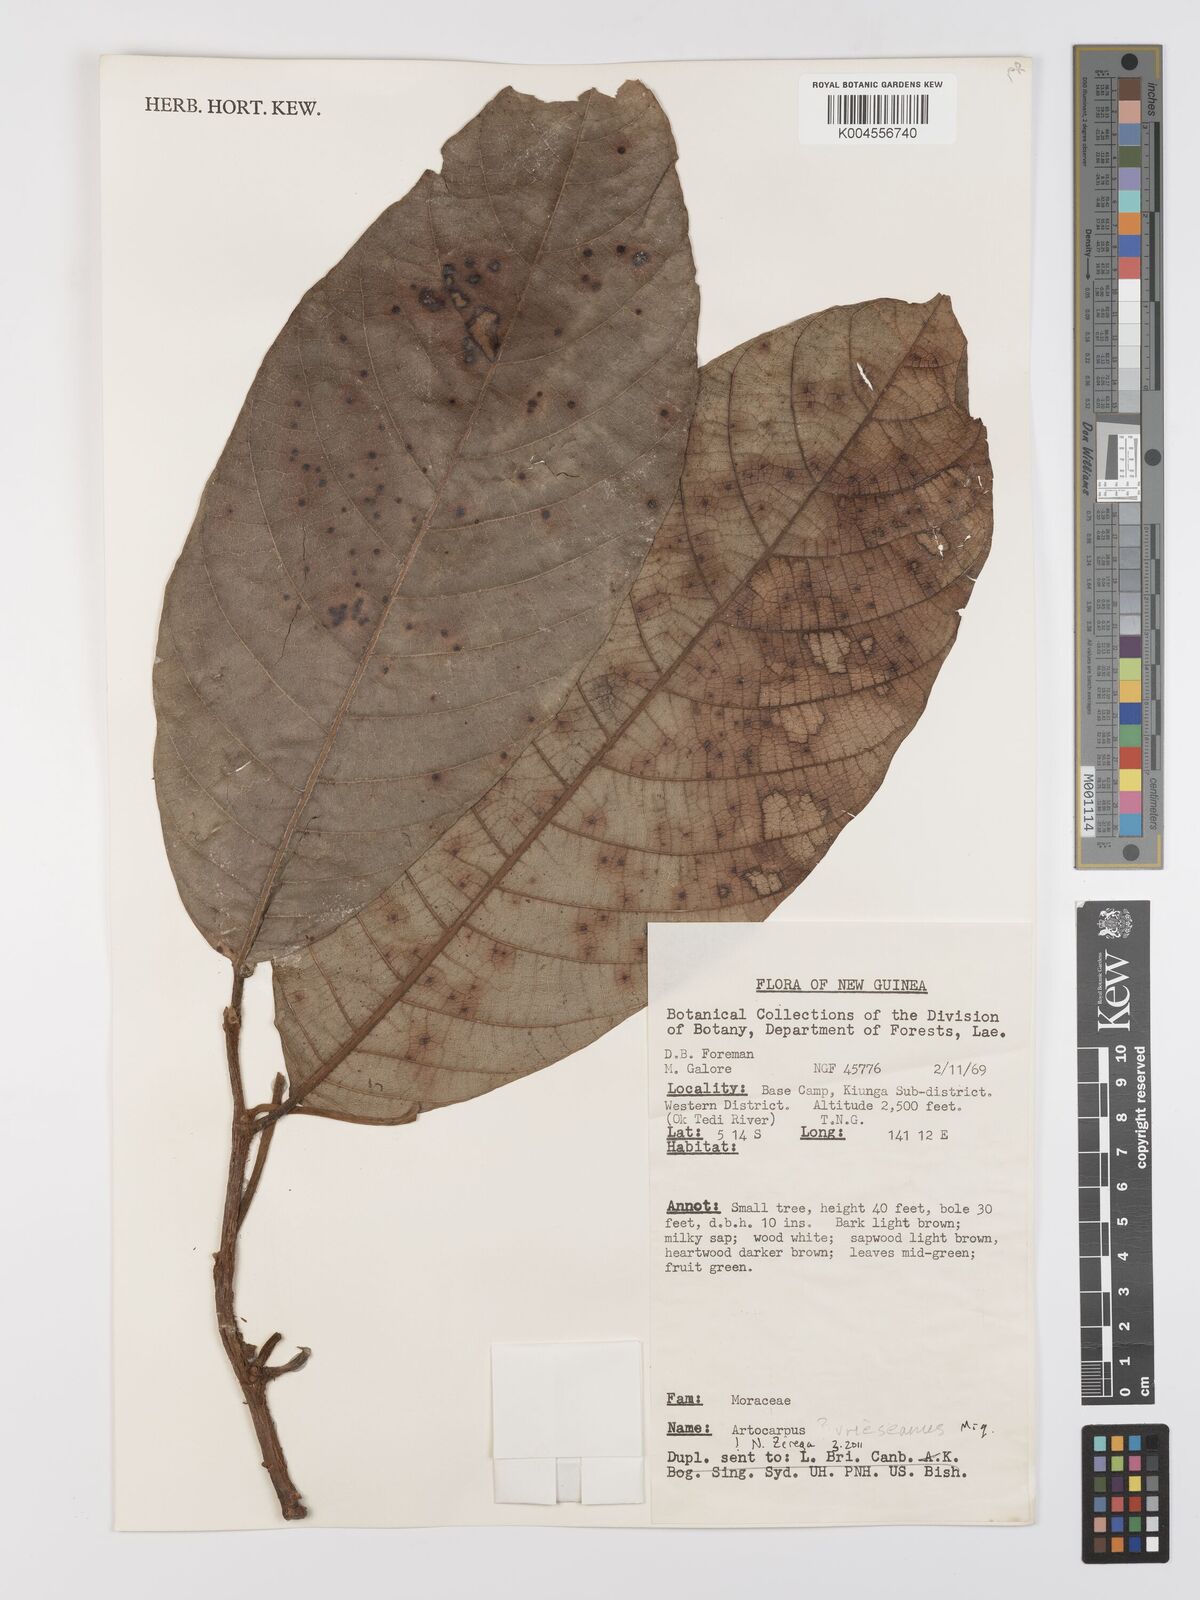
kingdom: Plantae
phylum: Tracheophyta
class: Magnoliopsida
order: Rosales
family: Moraceae
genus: Artocarpus
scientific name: Artocarpus vrieseanus
